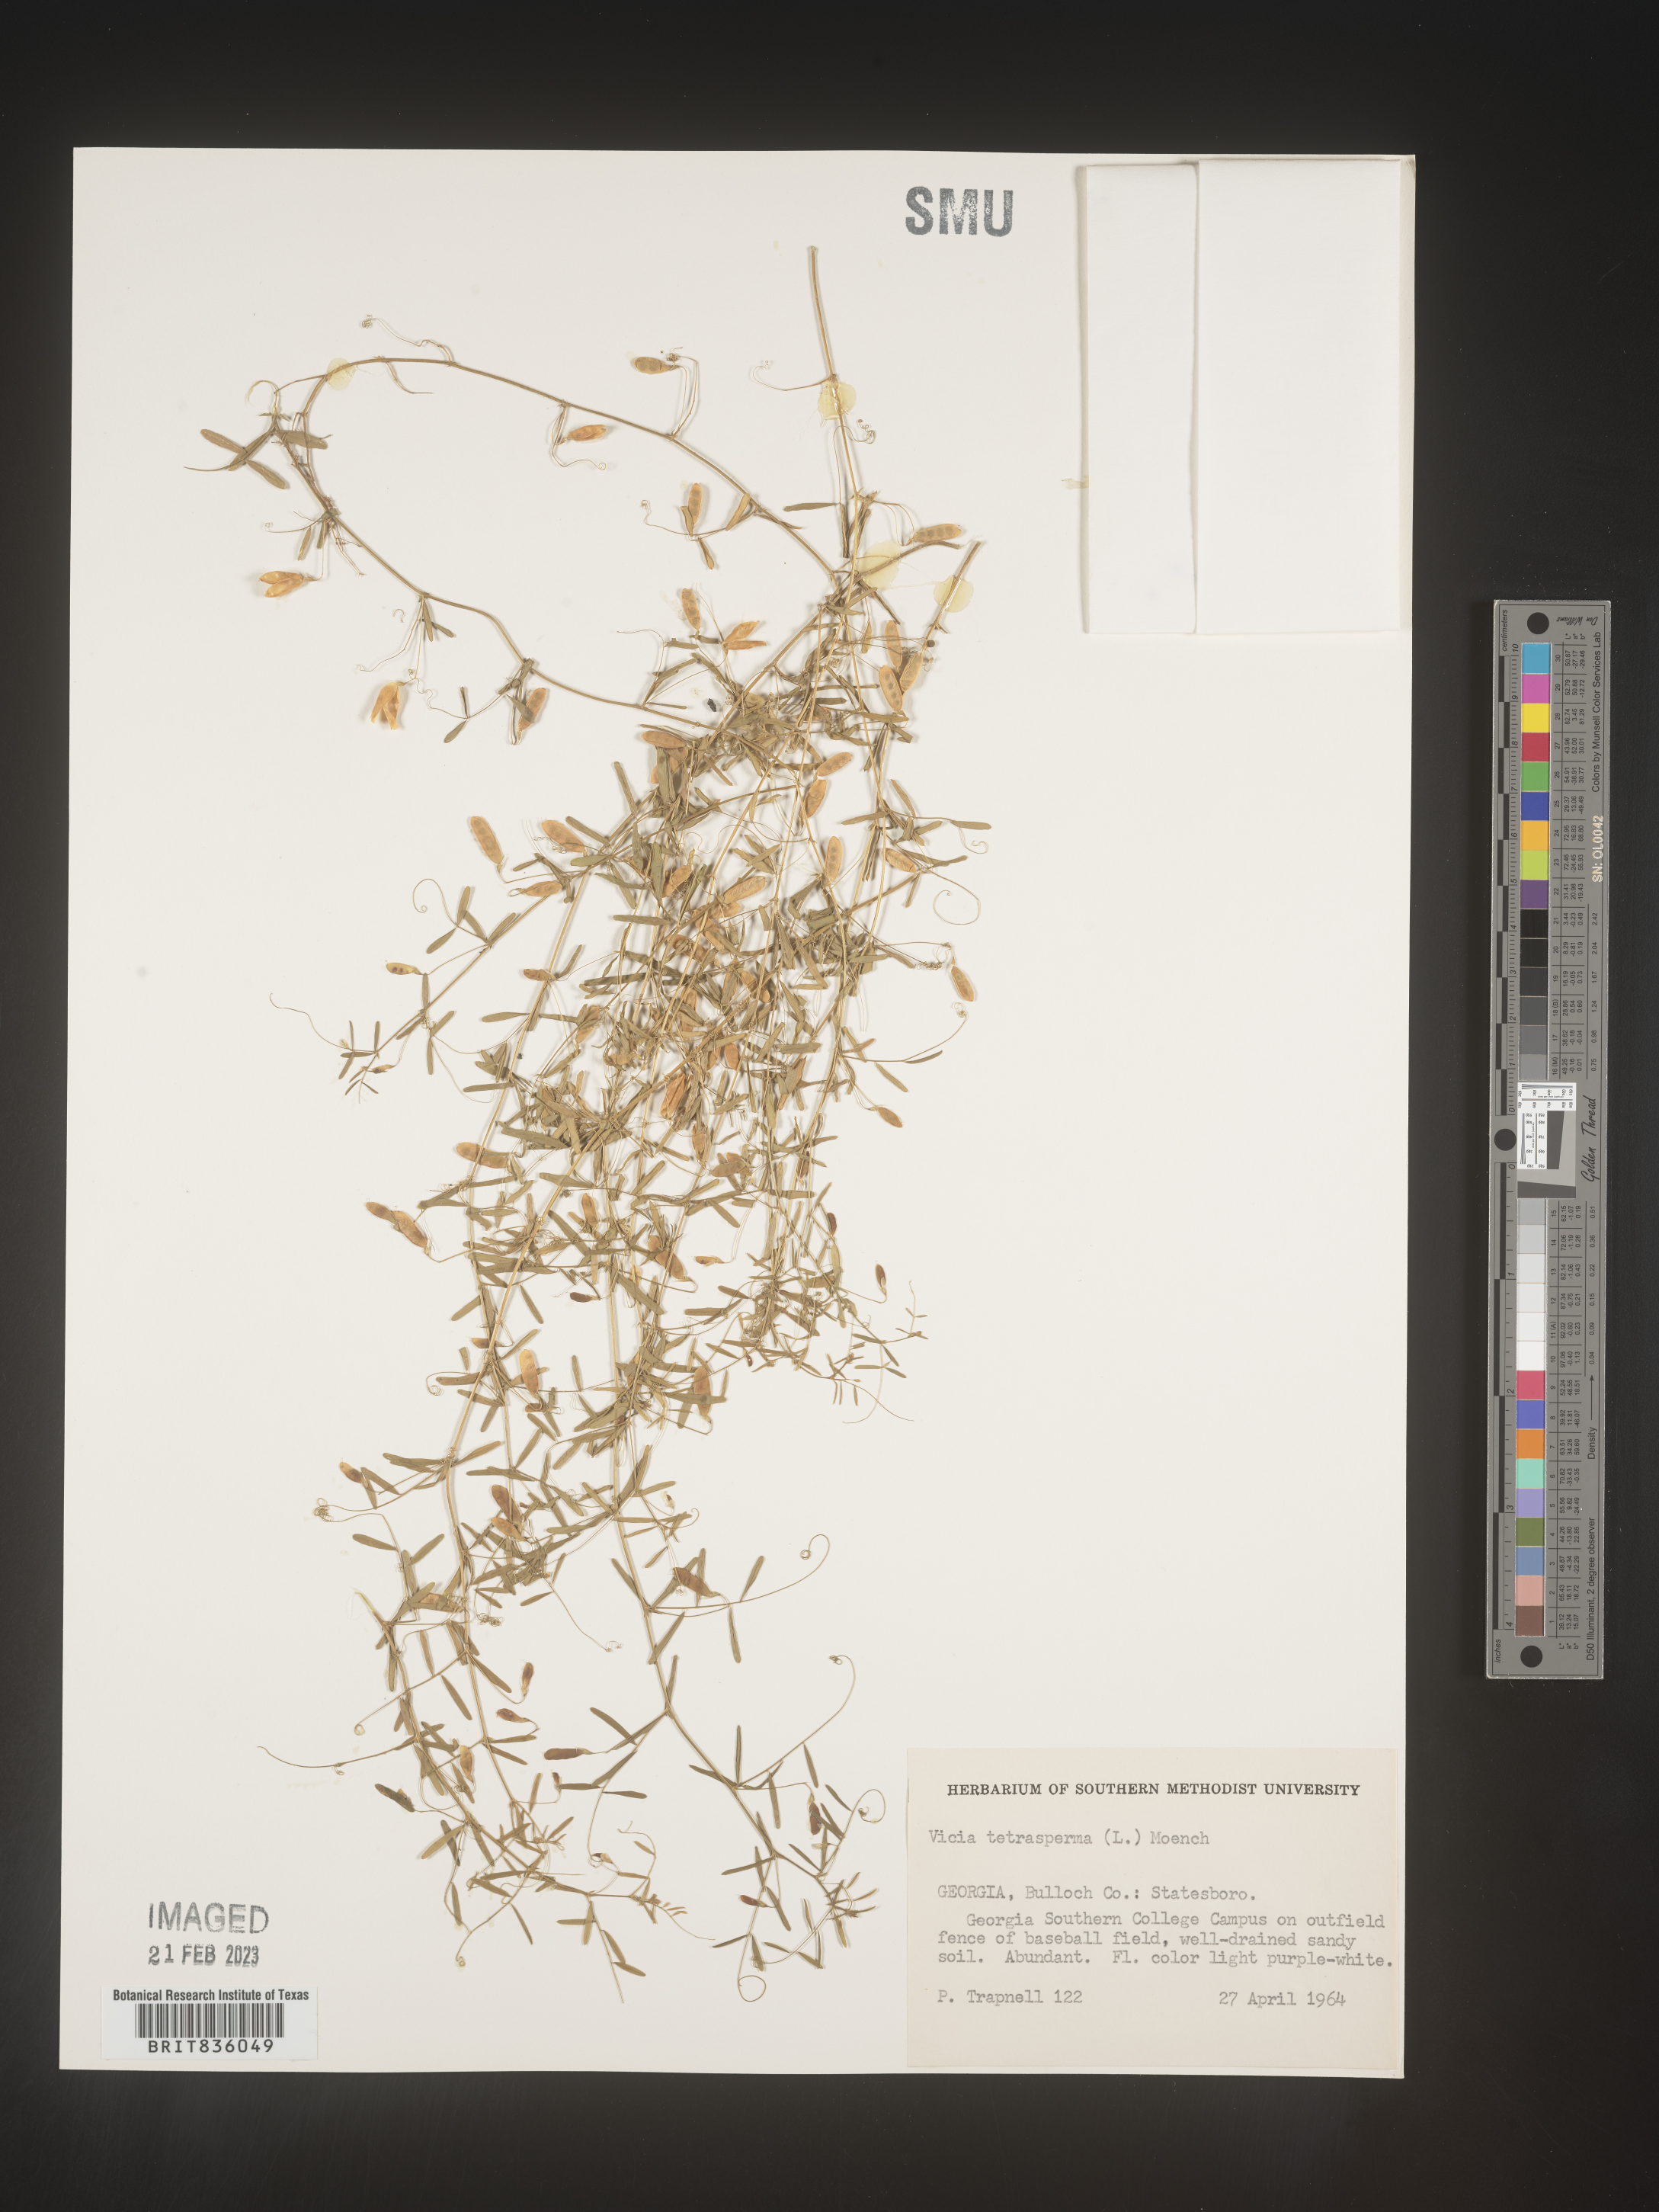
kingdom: Plantae
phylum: Tracheophyta
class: Magnoliopsida
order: Fabales
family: Fabaceae
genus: Vicia
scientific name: Vicia tetrasperma
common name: Smooth tare
